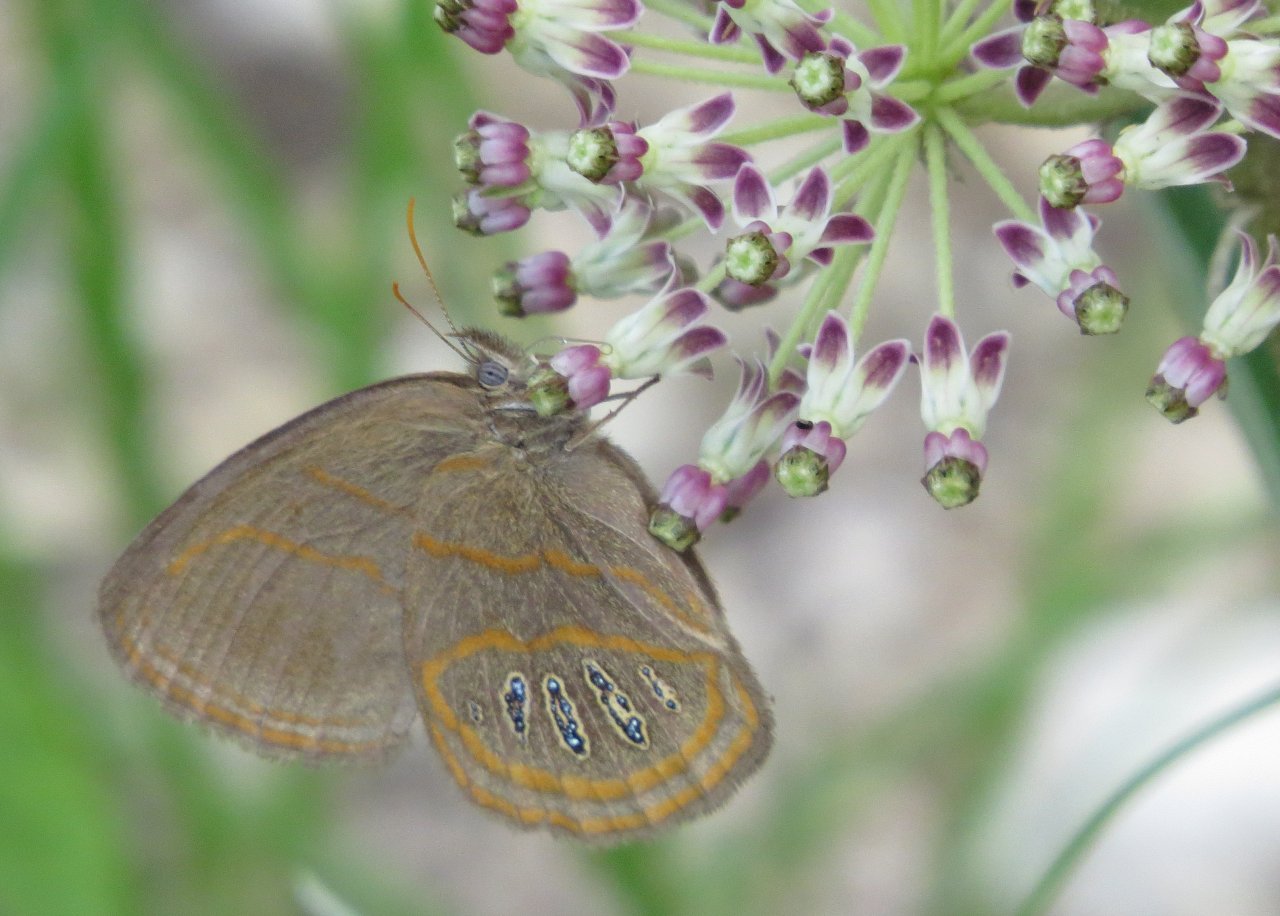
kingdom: Animalia
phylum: Arthropoda
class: Insecta
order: Lepidoptera
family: Nymphalidae
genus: Euptychia
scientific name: Euptychia phocion
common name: Georgia Satyr
